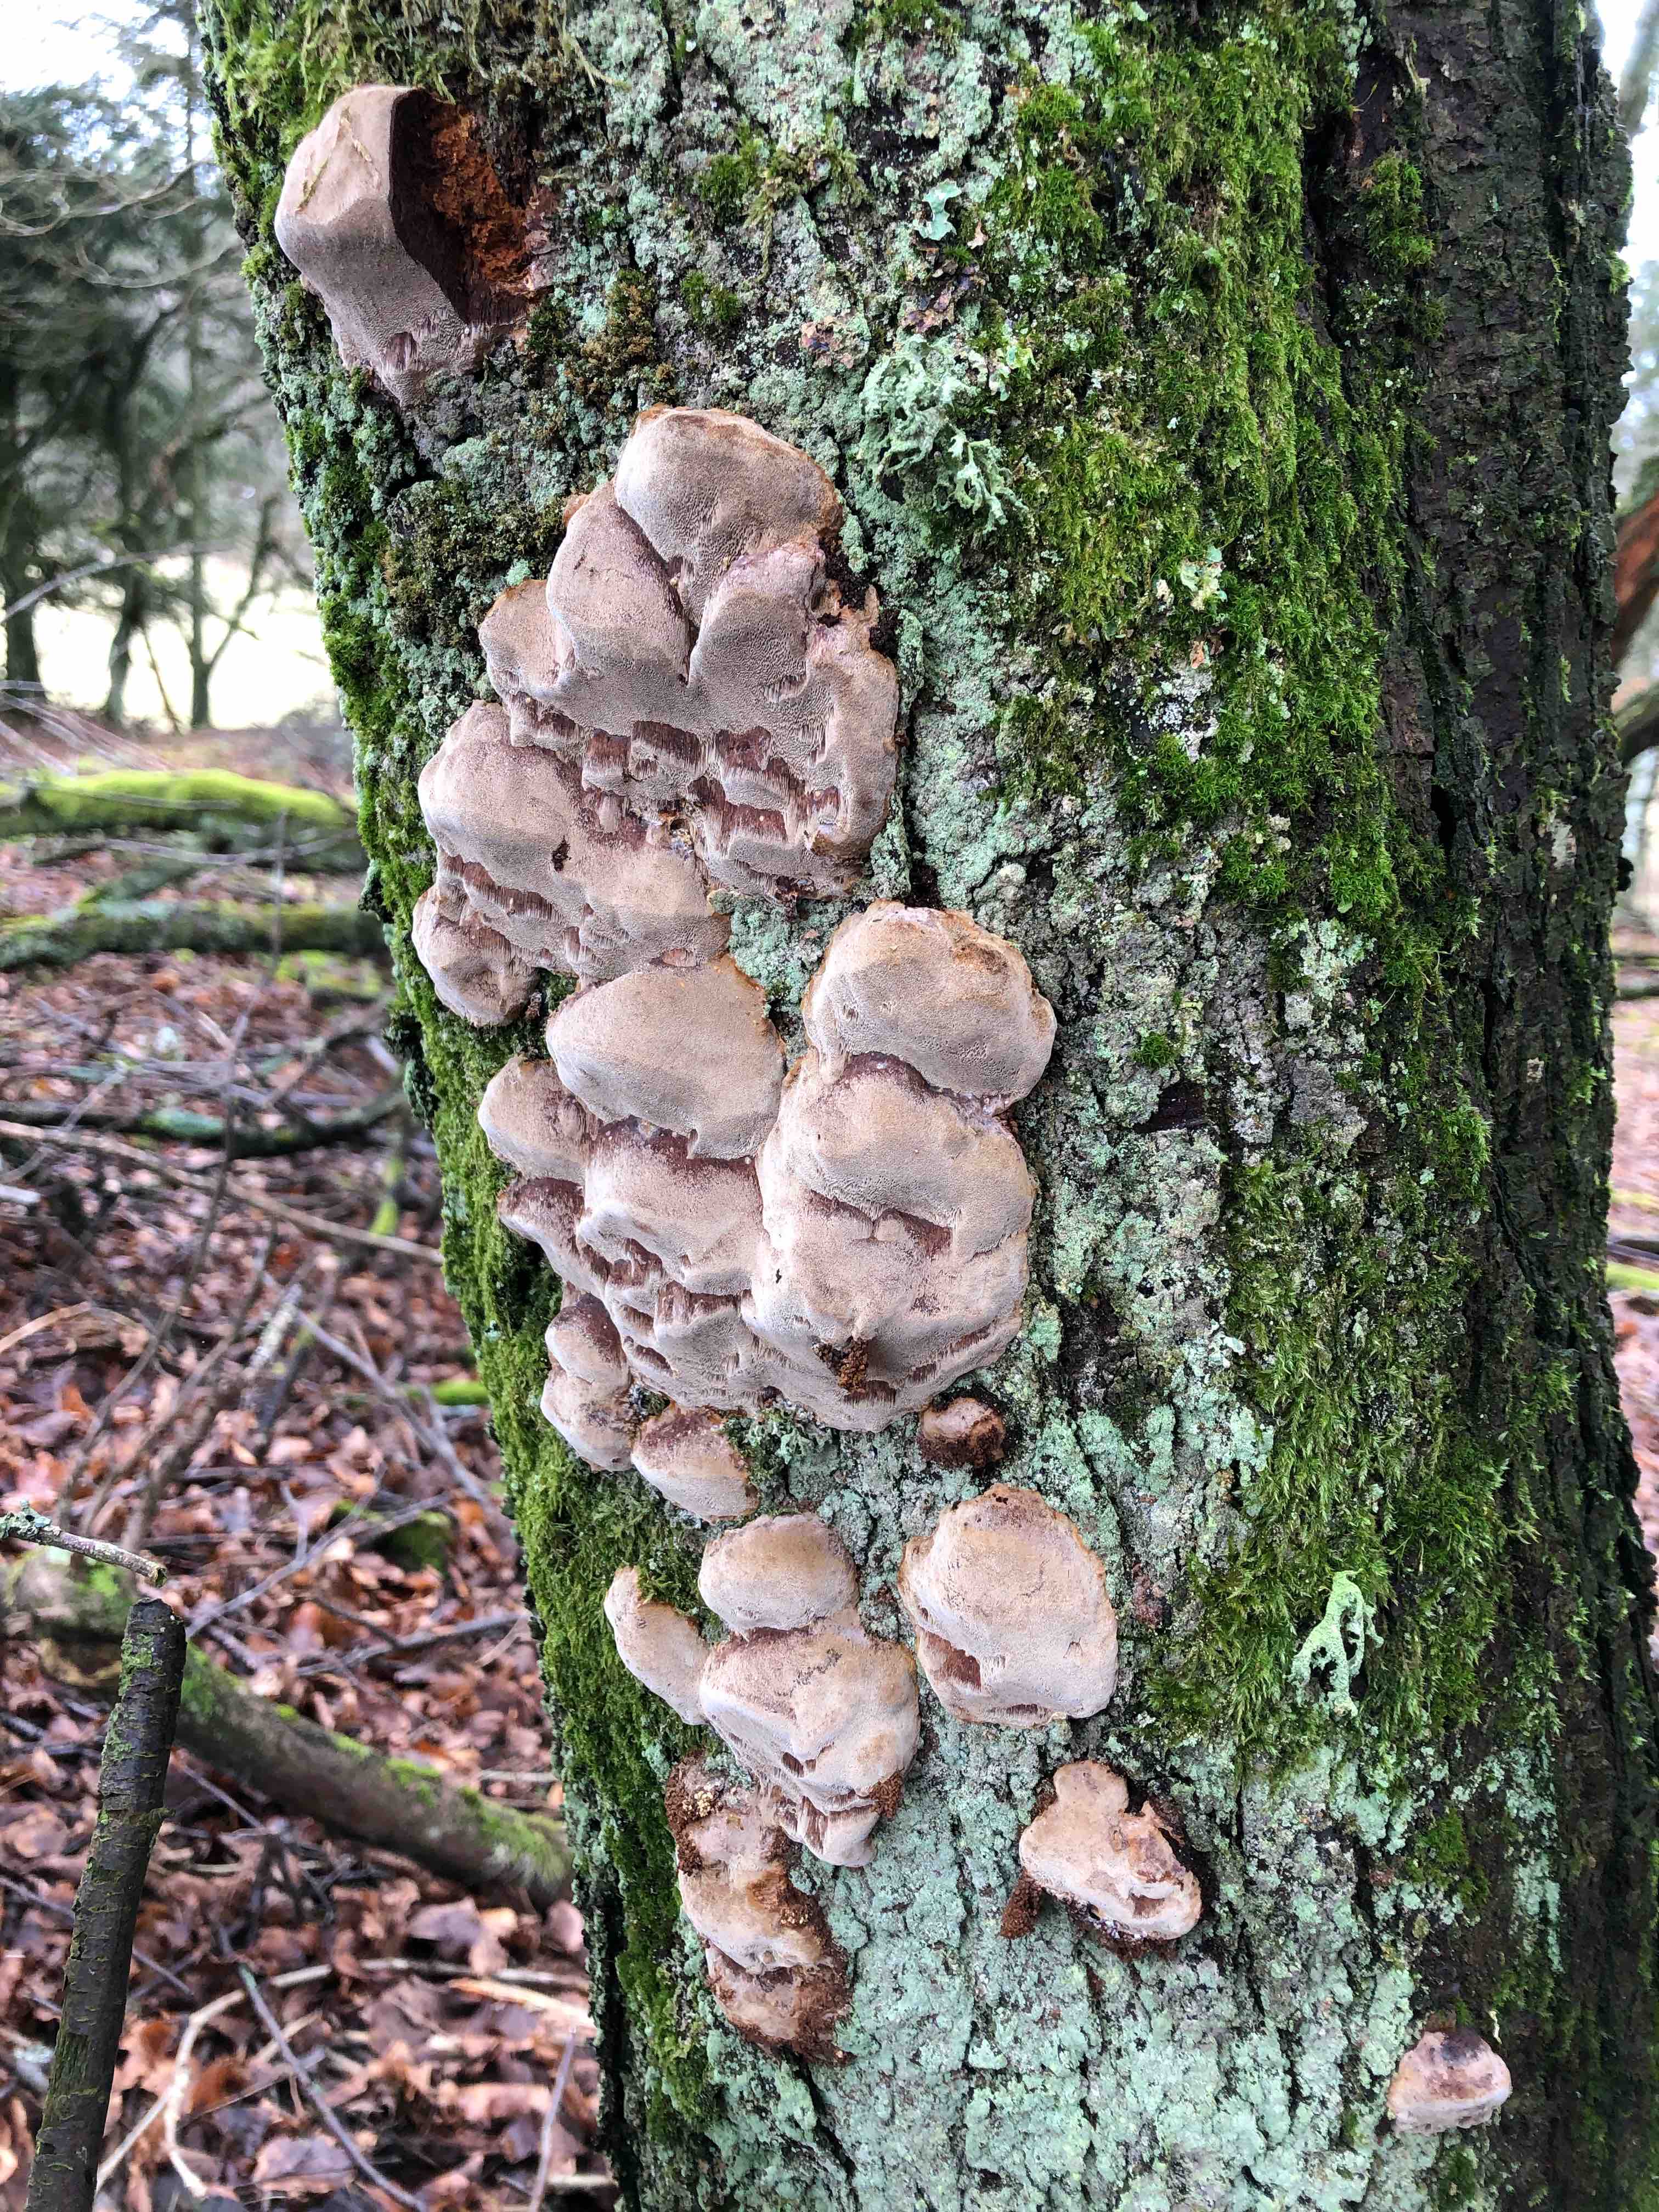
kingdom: Fungi
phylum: Basidiomycota
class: Agaricomycetes
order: Hymenochaetales
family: Hymenochaetaceae
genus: Phellinus
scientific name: Phellinus pomaceus
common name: blomme-ildporesvamp
